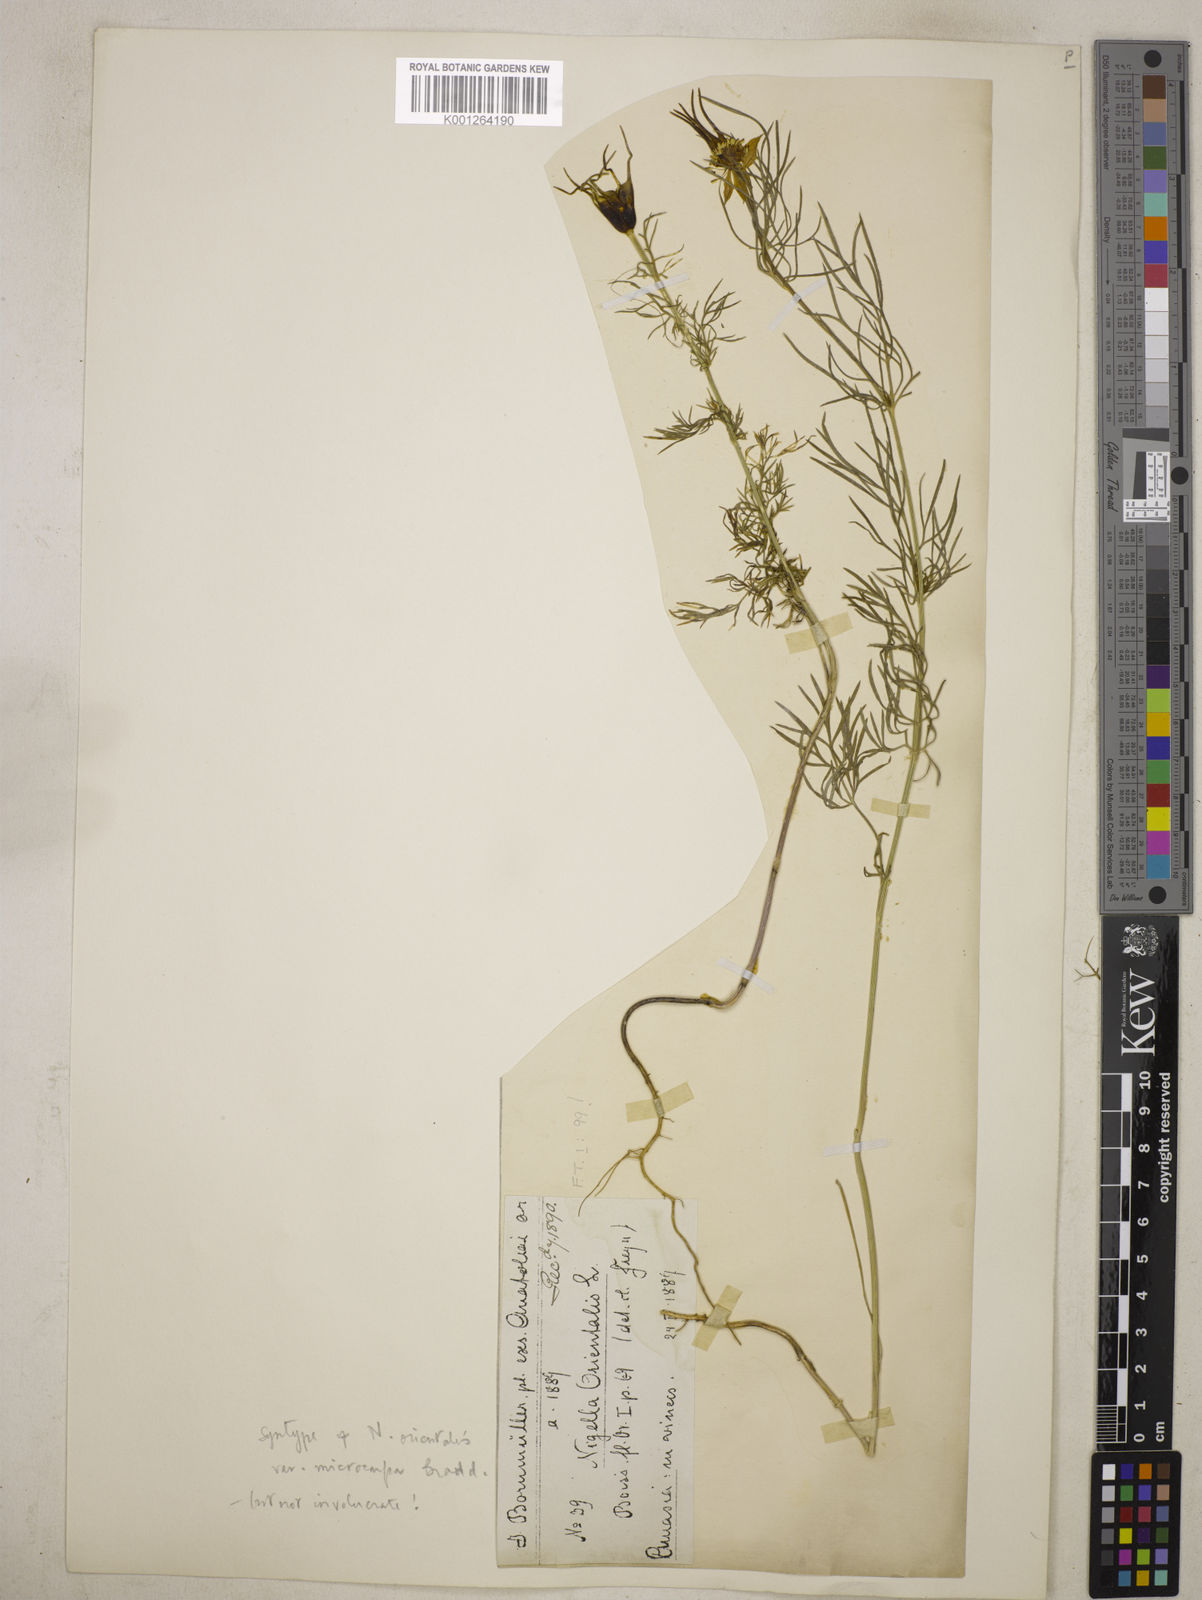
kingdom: Plantae
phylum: Tracheophyta
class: Magnoliopsida
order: Ranunculales
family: Ranunculaceae
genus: Nigella
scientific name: Nigella orientalis
